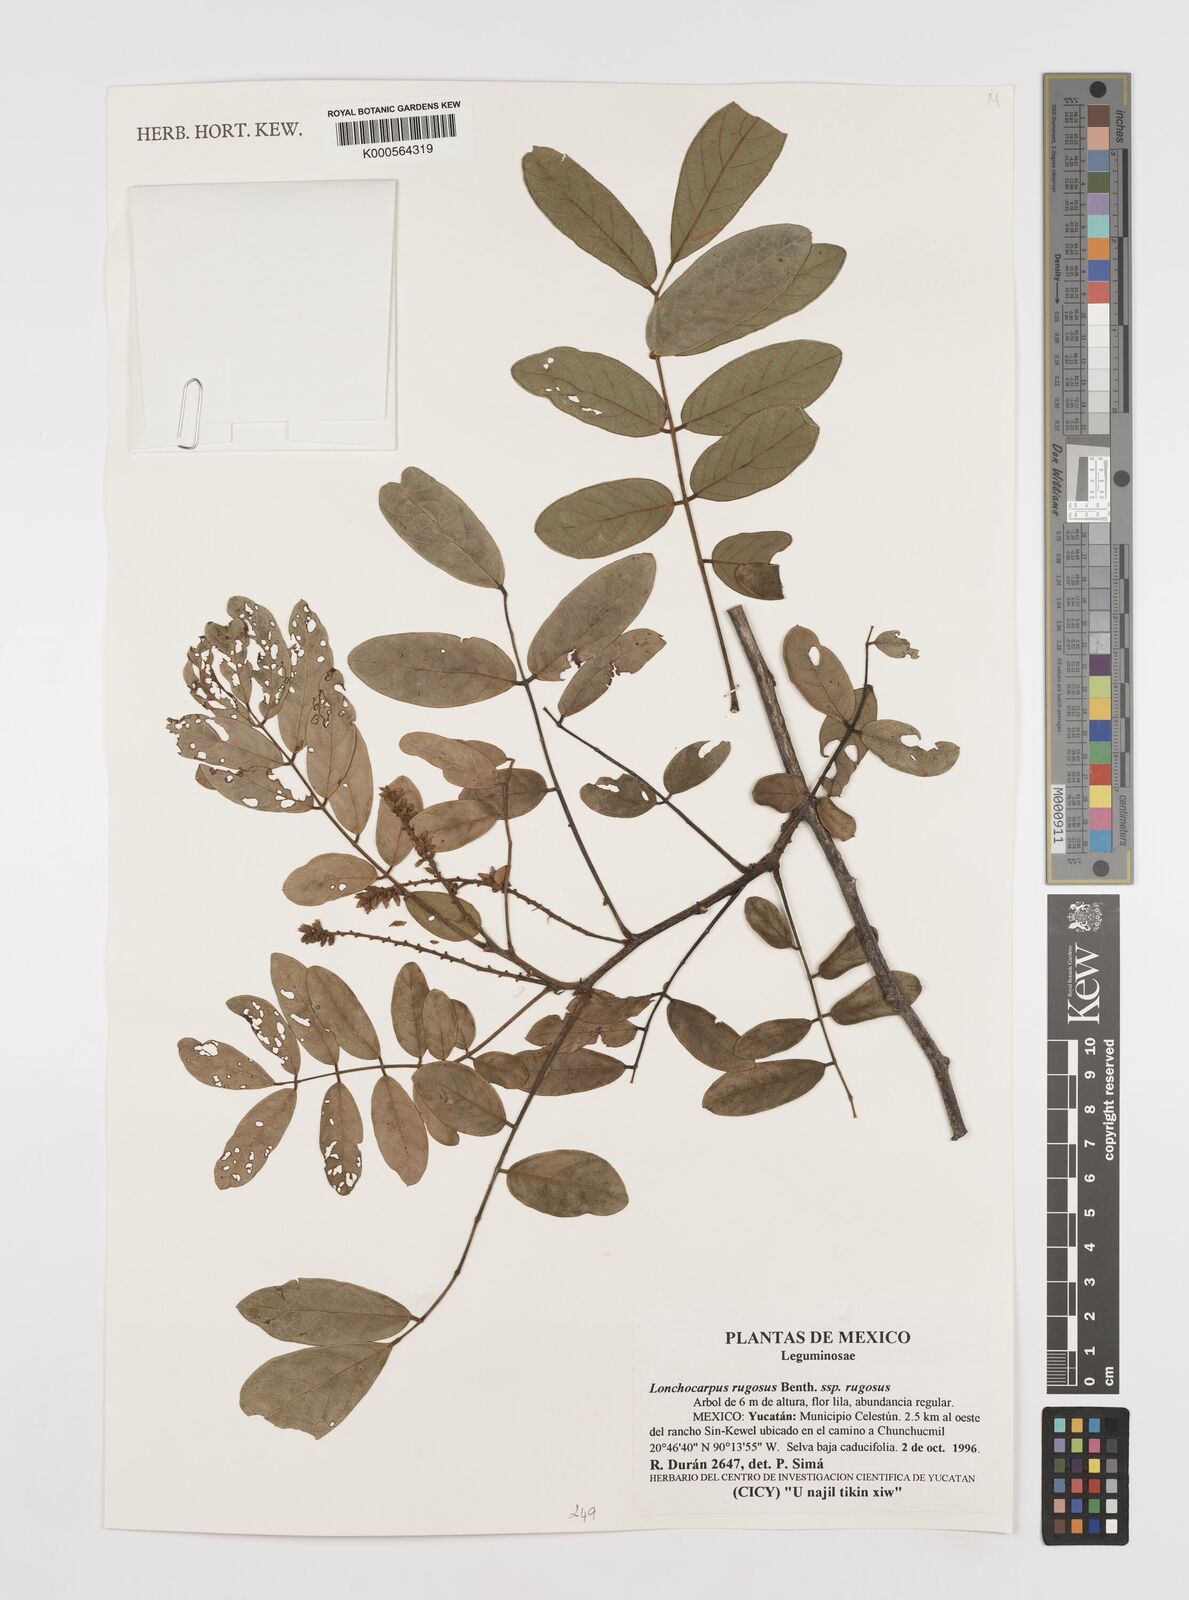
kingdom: Plantae
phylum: Tracheophyta
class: Magnoliopsida
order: Fabales
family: Fabaceae
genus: Lonchocarpus
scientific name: Lonchocarpus rugosus
